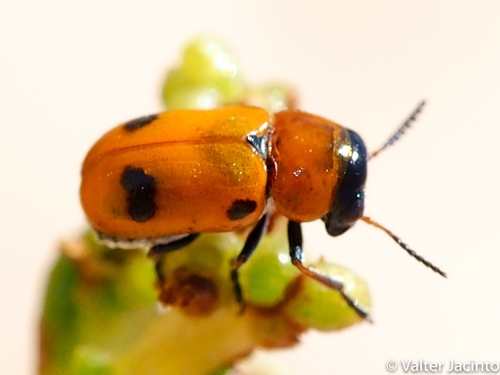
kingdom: Animalia
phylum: Arthropoda
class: Insecta
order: Coleoptera
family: Chrysomelidae
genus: Coptocephala
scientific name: Coptocephala
